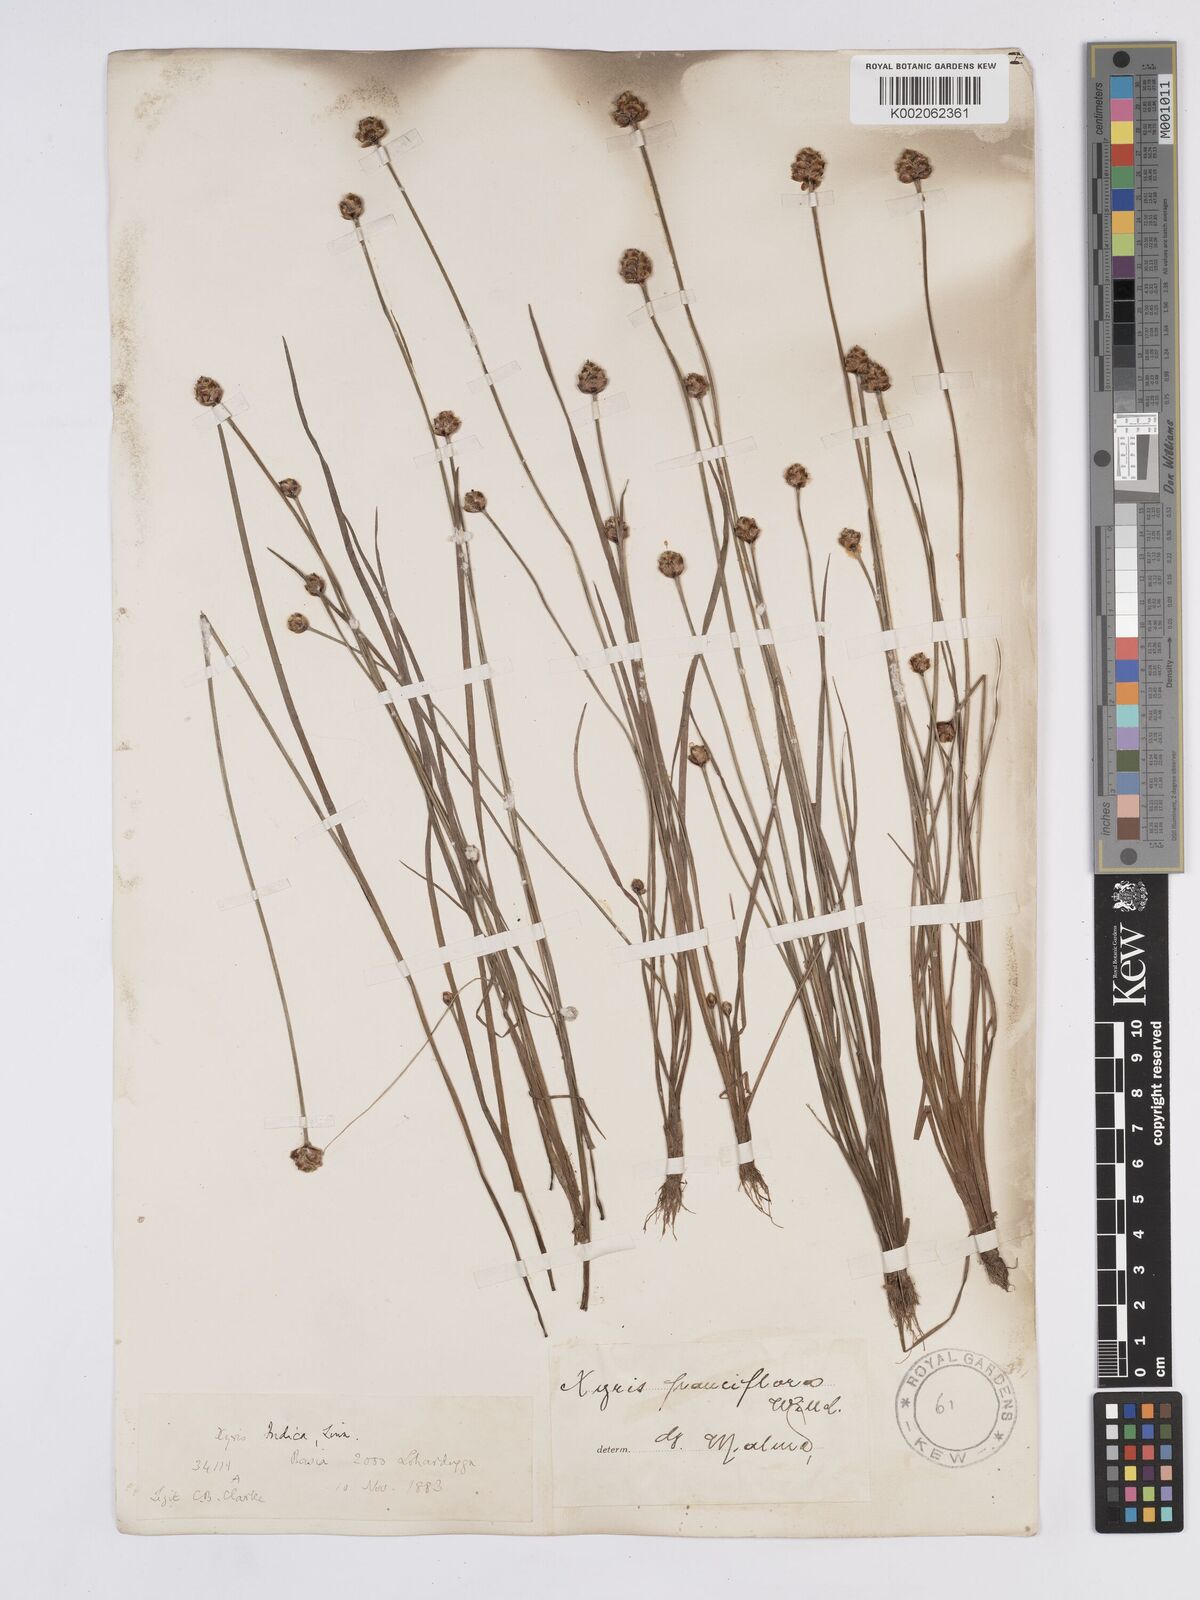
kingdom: Plantae
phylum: Tracheophyta
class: Liliopsida
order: Poales
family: Xyridaceae
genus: Xyris
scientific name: Xyris pauciflora
